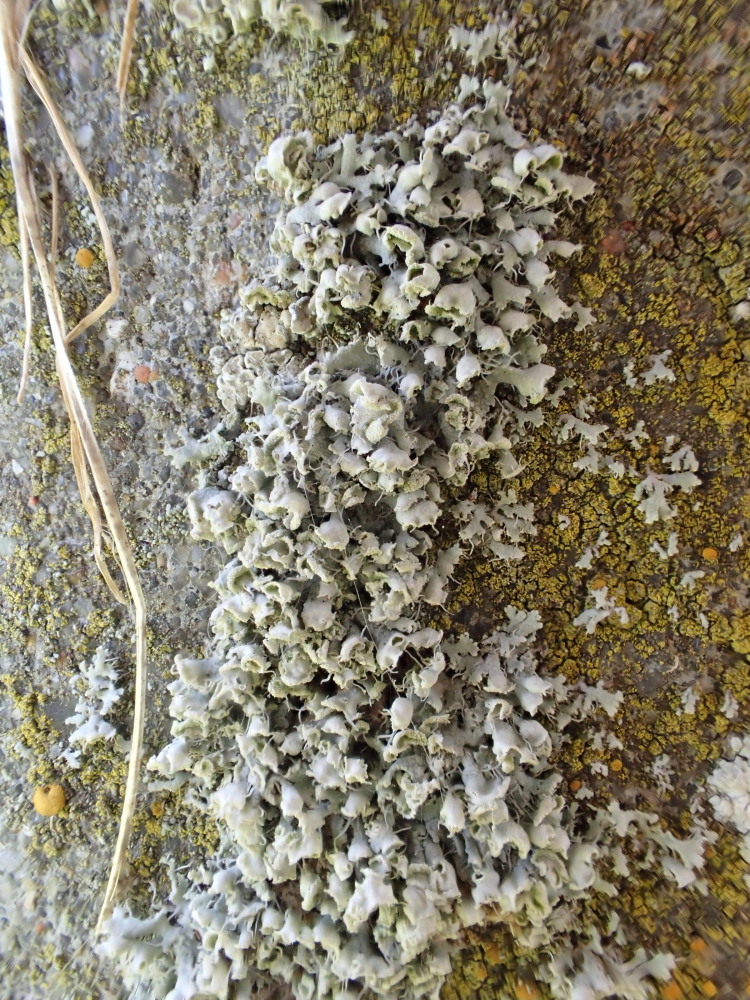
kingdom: Fungi
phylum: Ascomycota
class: Lecanoromycetes
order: Caliciales
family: Physciaceae
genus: Physcia
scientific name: Physcia adscendens
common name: hætte-rosetlav
